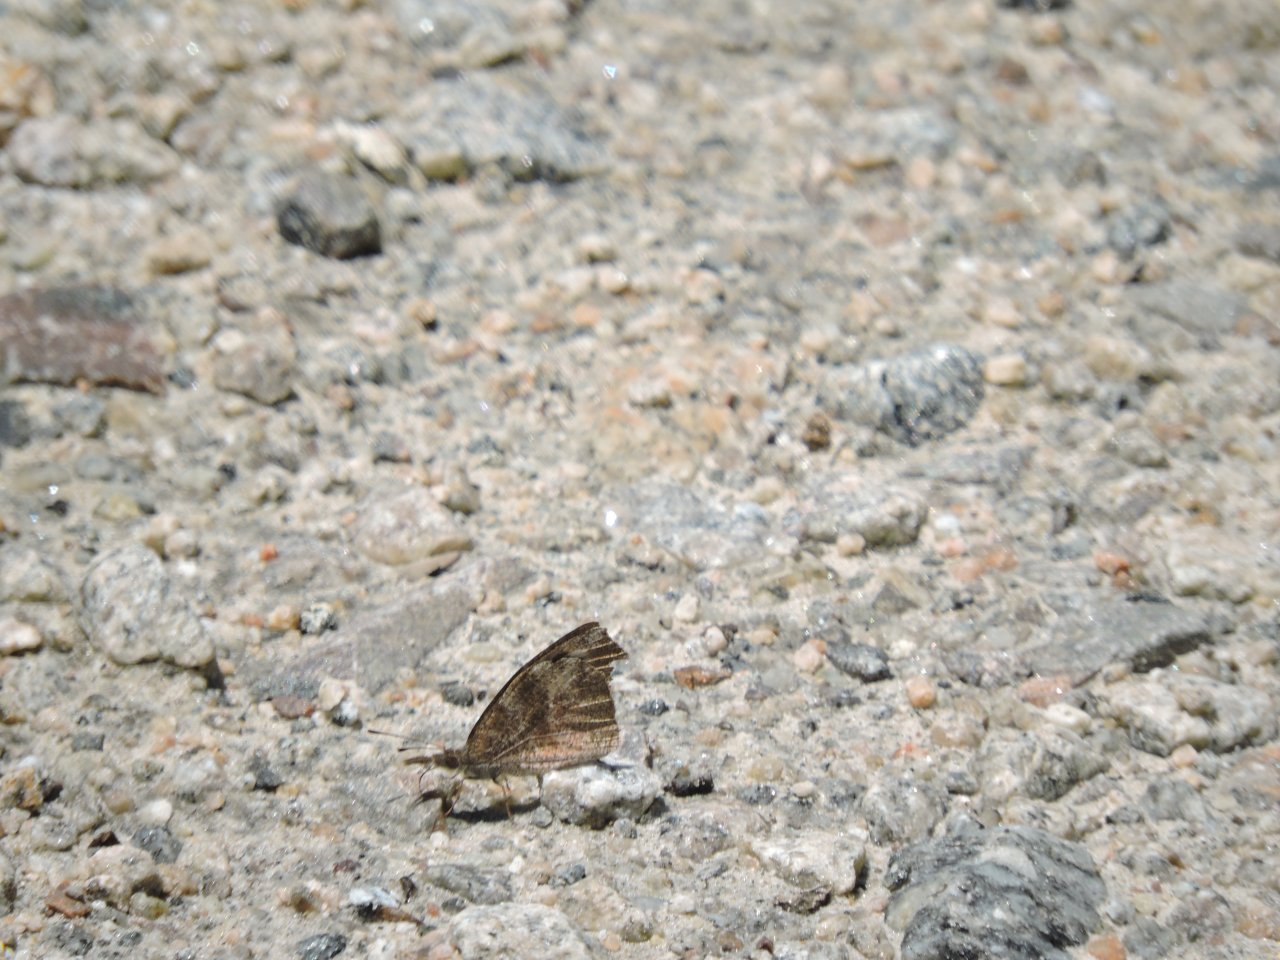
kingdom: Animalia
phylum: Arthropoda
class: Insecta
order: Lepidoptera
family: Nymphalidae
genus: Libytheana
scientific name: Libytheana carinenta
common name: American Snout
